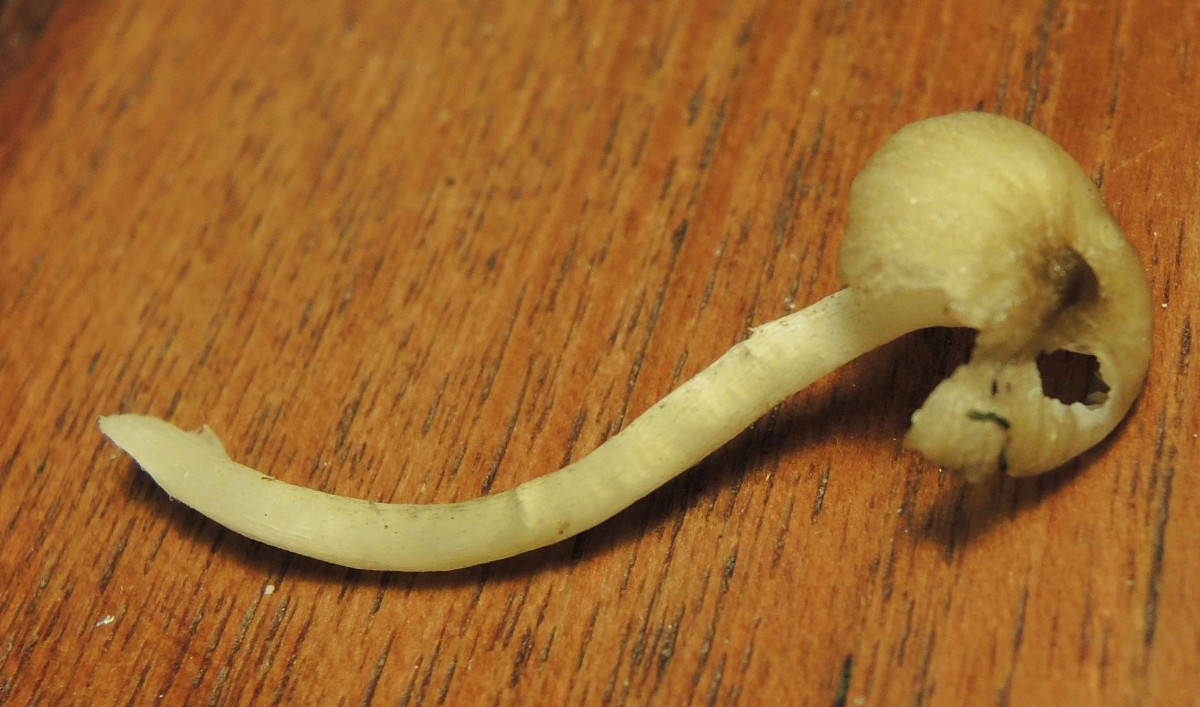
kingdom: Fungi
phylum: Basidiomycota
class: Agaricomycetes
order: Agaricales
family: Hygrophoraceae
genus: Hygrophorus
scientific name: Hygrophorus pustulatus
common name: mørkprikket sneglehat
